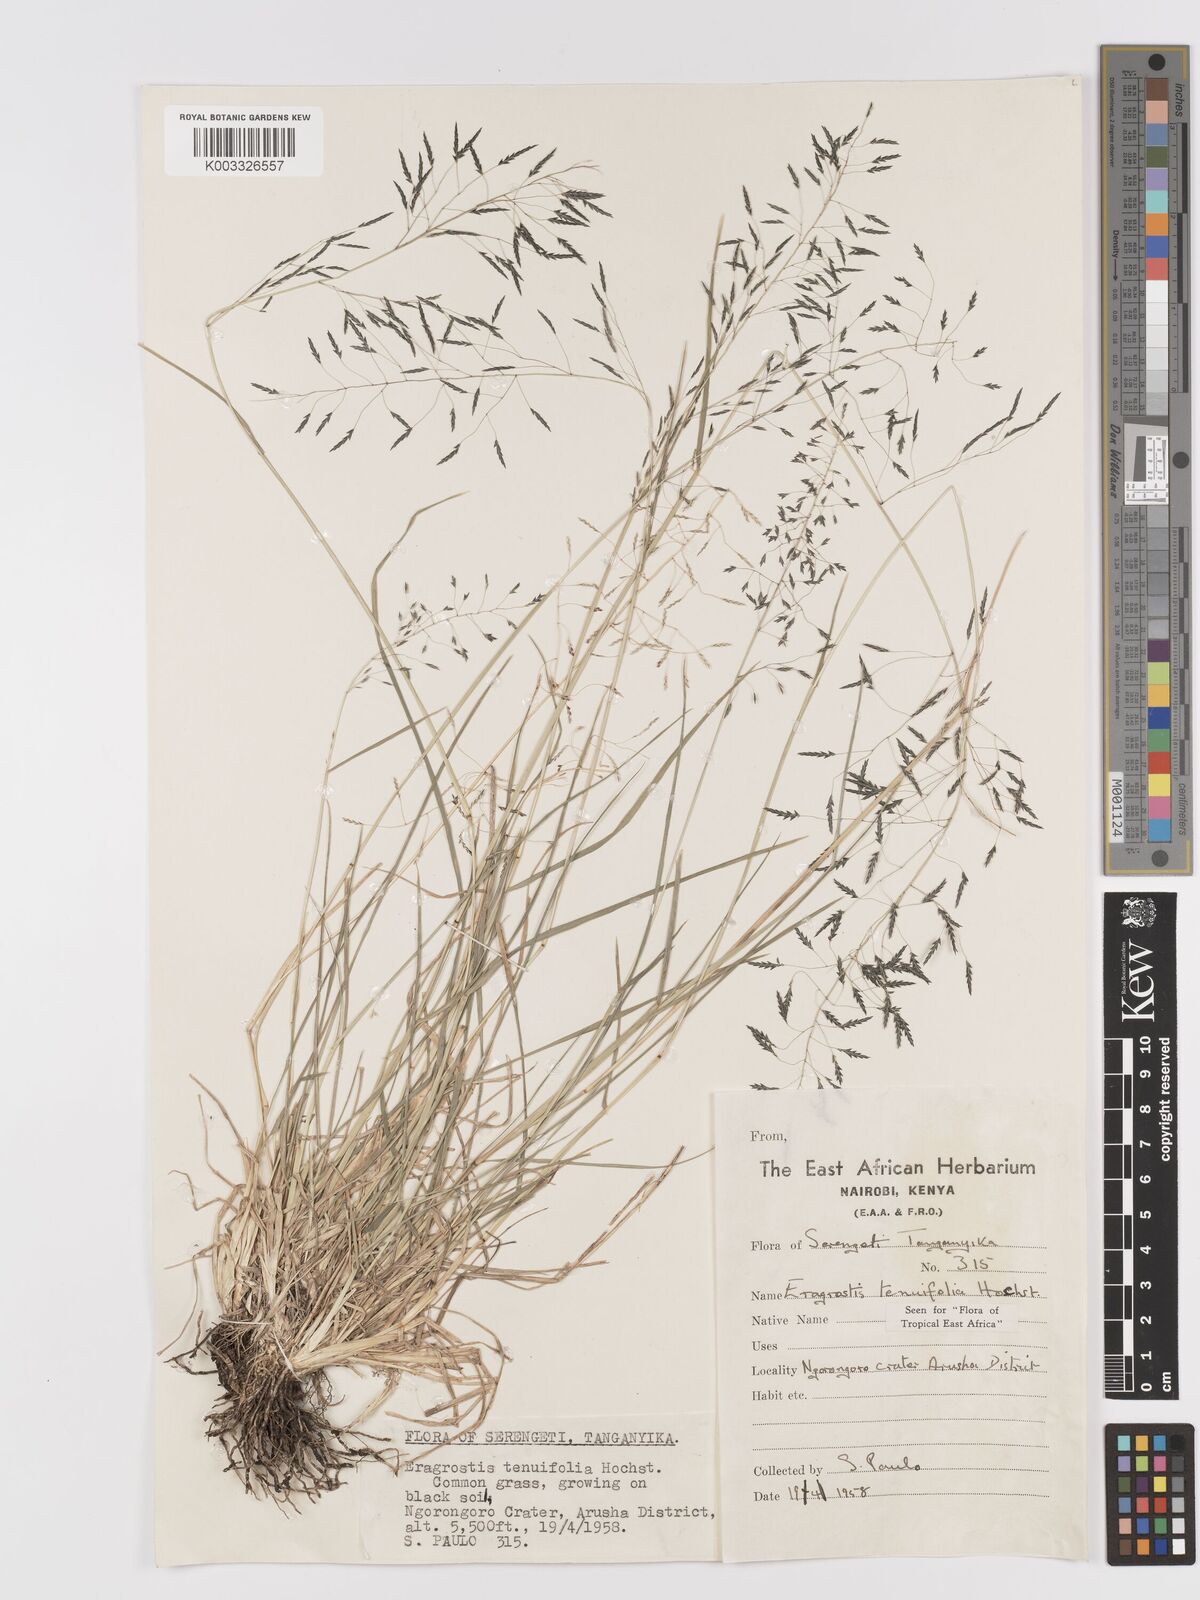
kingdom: Plantae
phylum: Tracheophyta
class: Liliopsida
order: Poales
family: Poaceae
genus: Eragrostis
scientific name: Eragrostis tenuifolia
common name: Elastic grass
